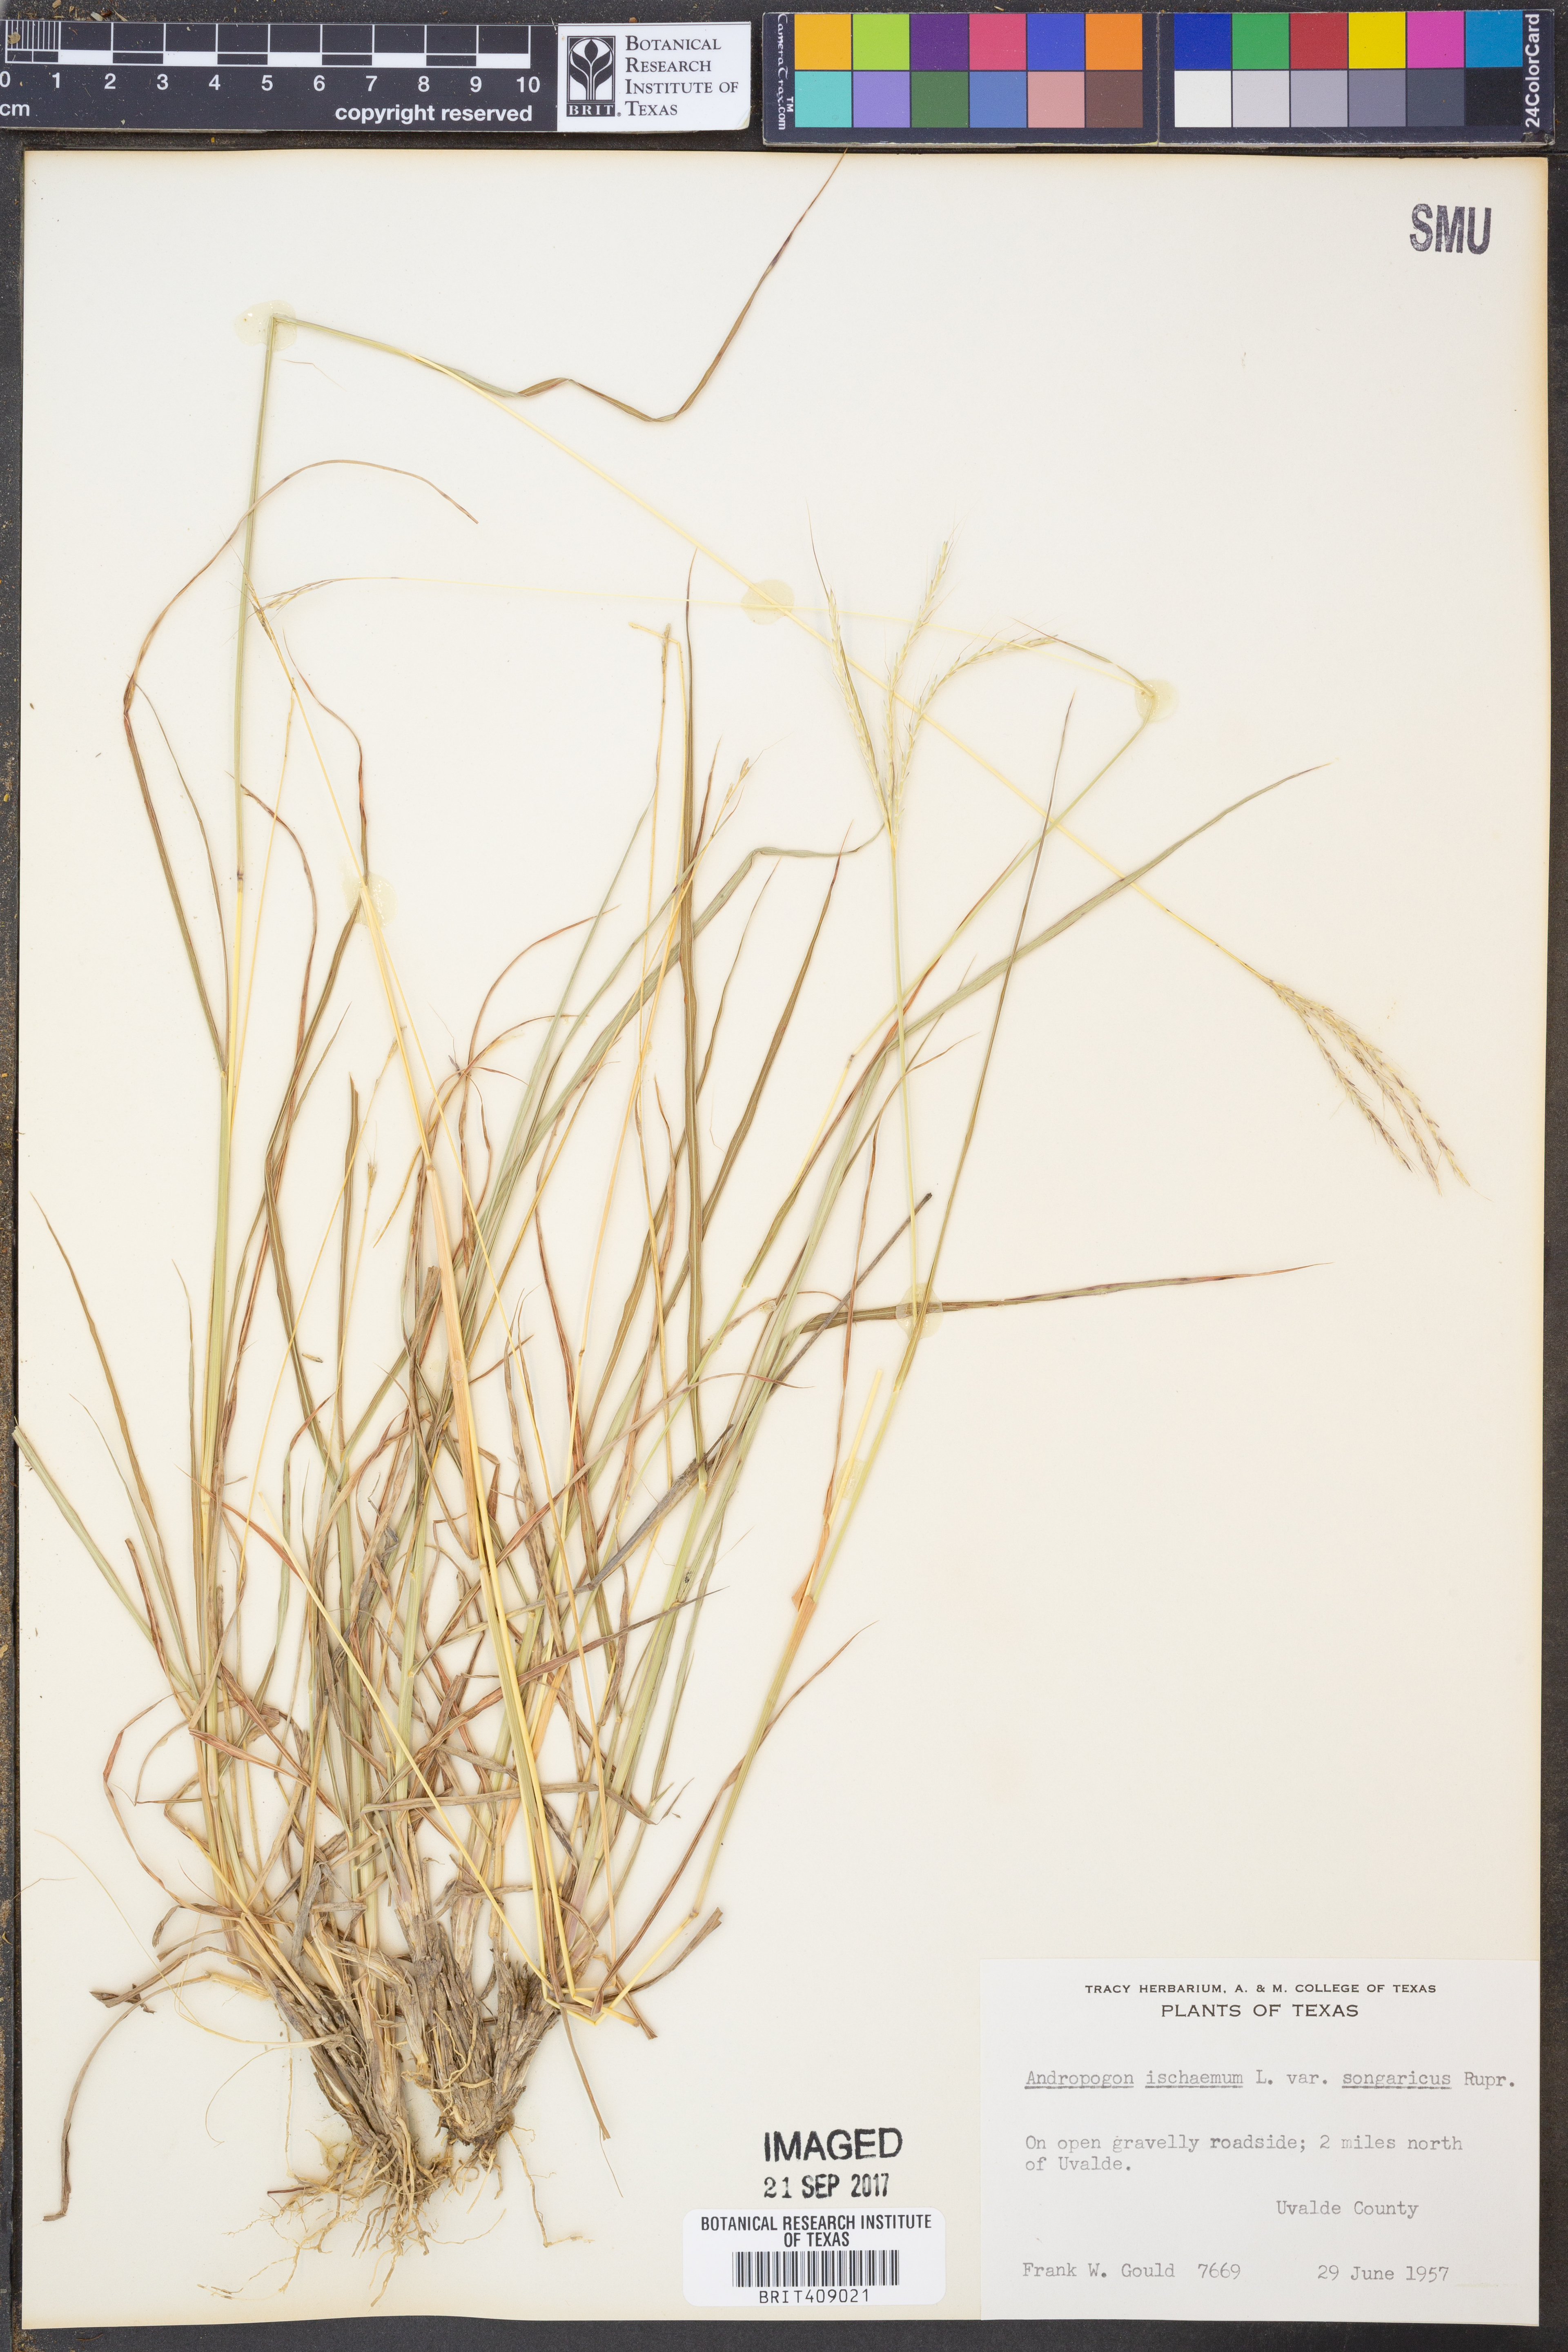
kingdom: Plantae
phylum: Tracheophyta
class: Liliopsida
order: Poales
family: Poaceae
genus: Bothriochloa
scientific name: Bothriochloa ischaemum
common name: Yellow bluestem
